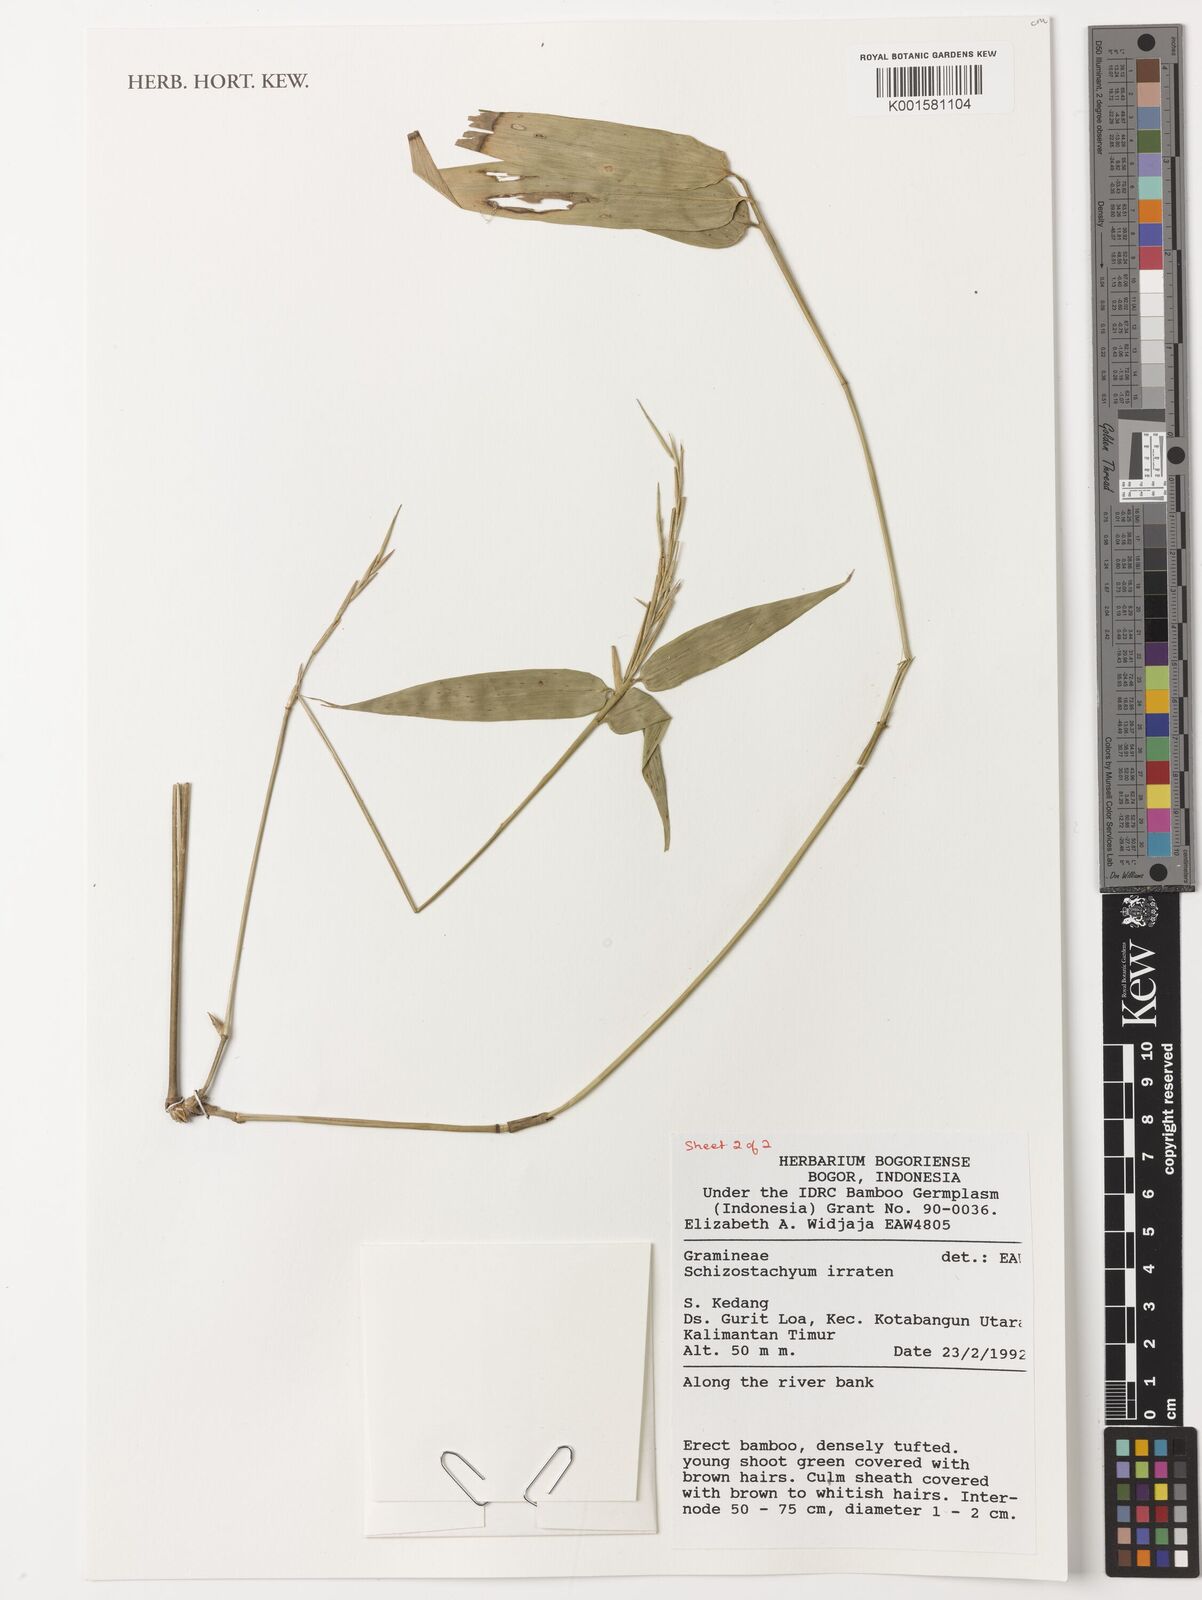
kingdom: Plantae
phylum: Tracheophyta
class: Liliopsida
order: Poales
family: Poaceae
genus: Schizostachyum
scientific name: Schizostachyum iraten
